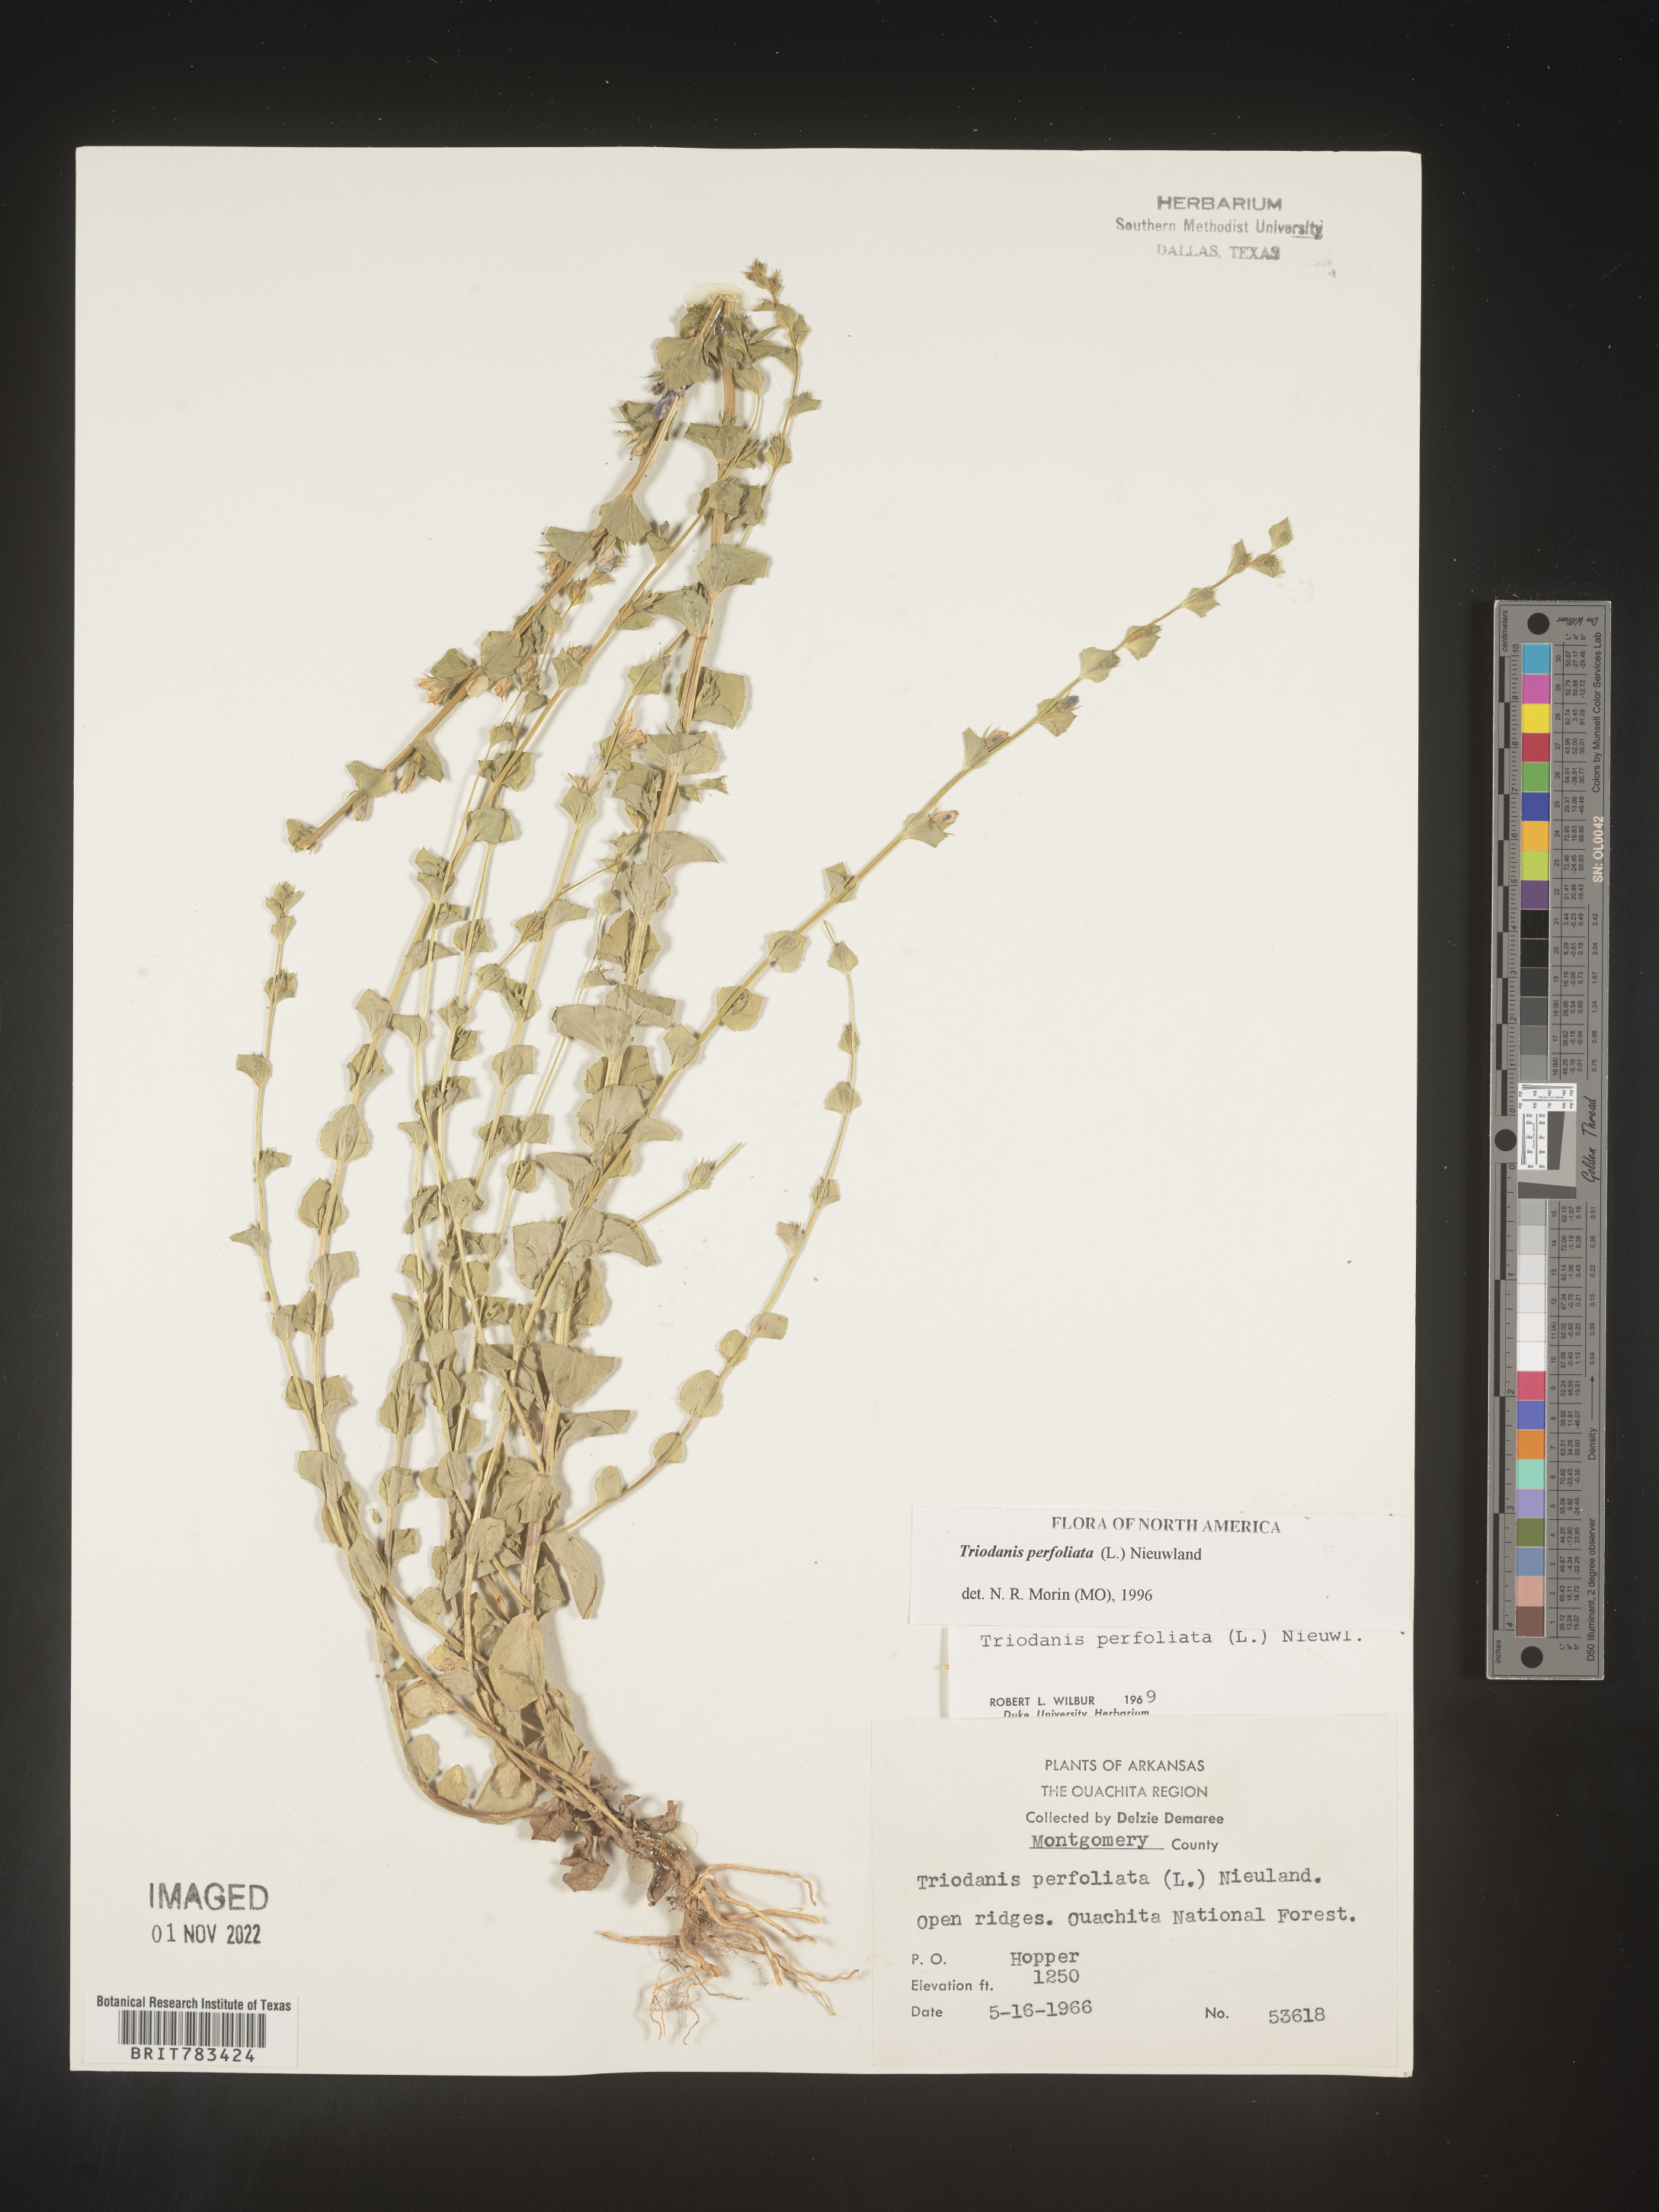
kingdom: Plantae
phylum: Tracheophyta
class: Magnoliopsida
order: Asterales
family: Campanulaceae
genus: Triodanis
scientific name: Triodanis perfoliata
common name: Clasping venus' looking-glass
